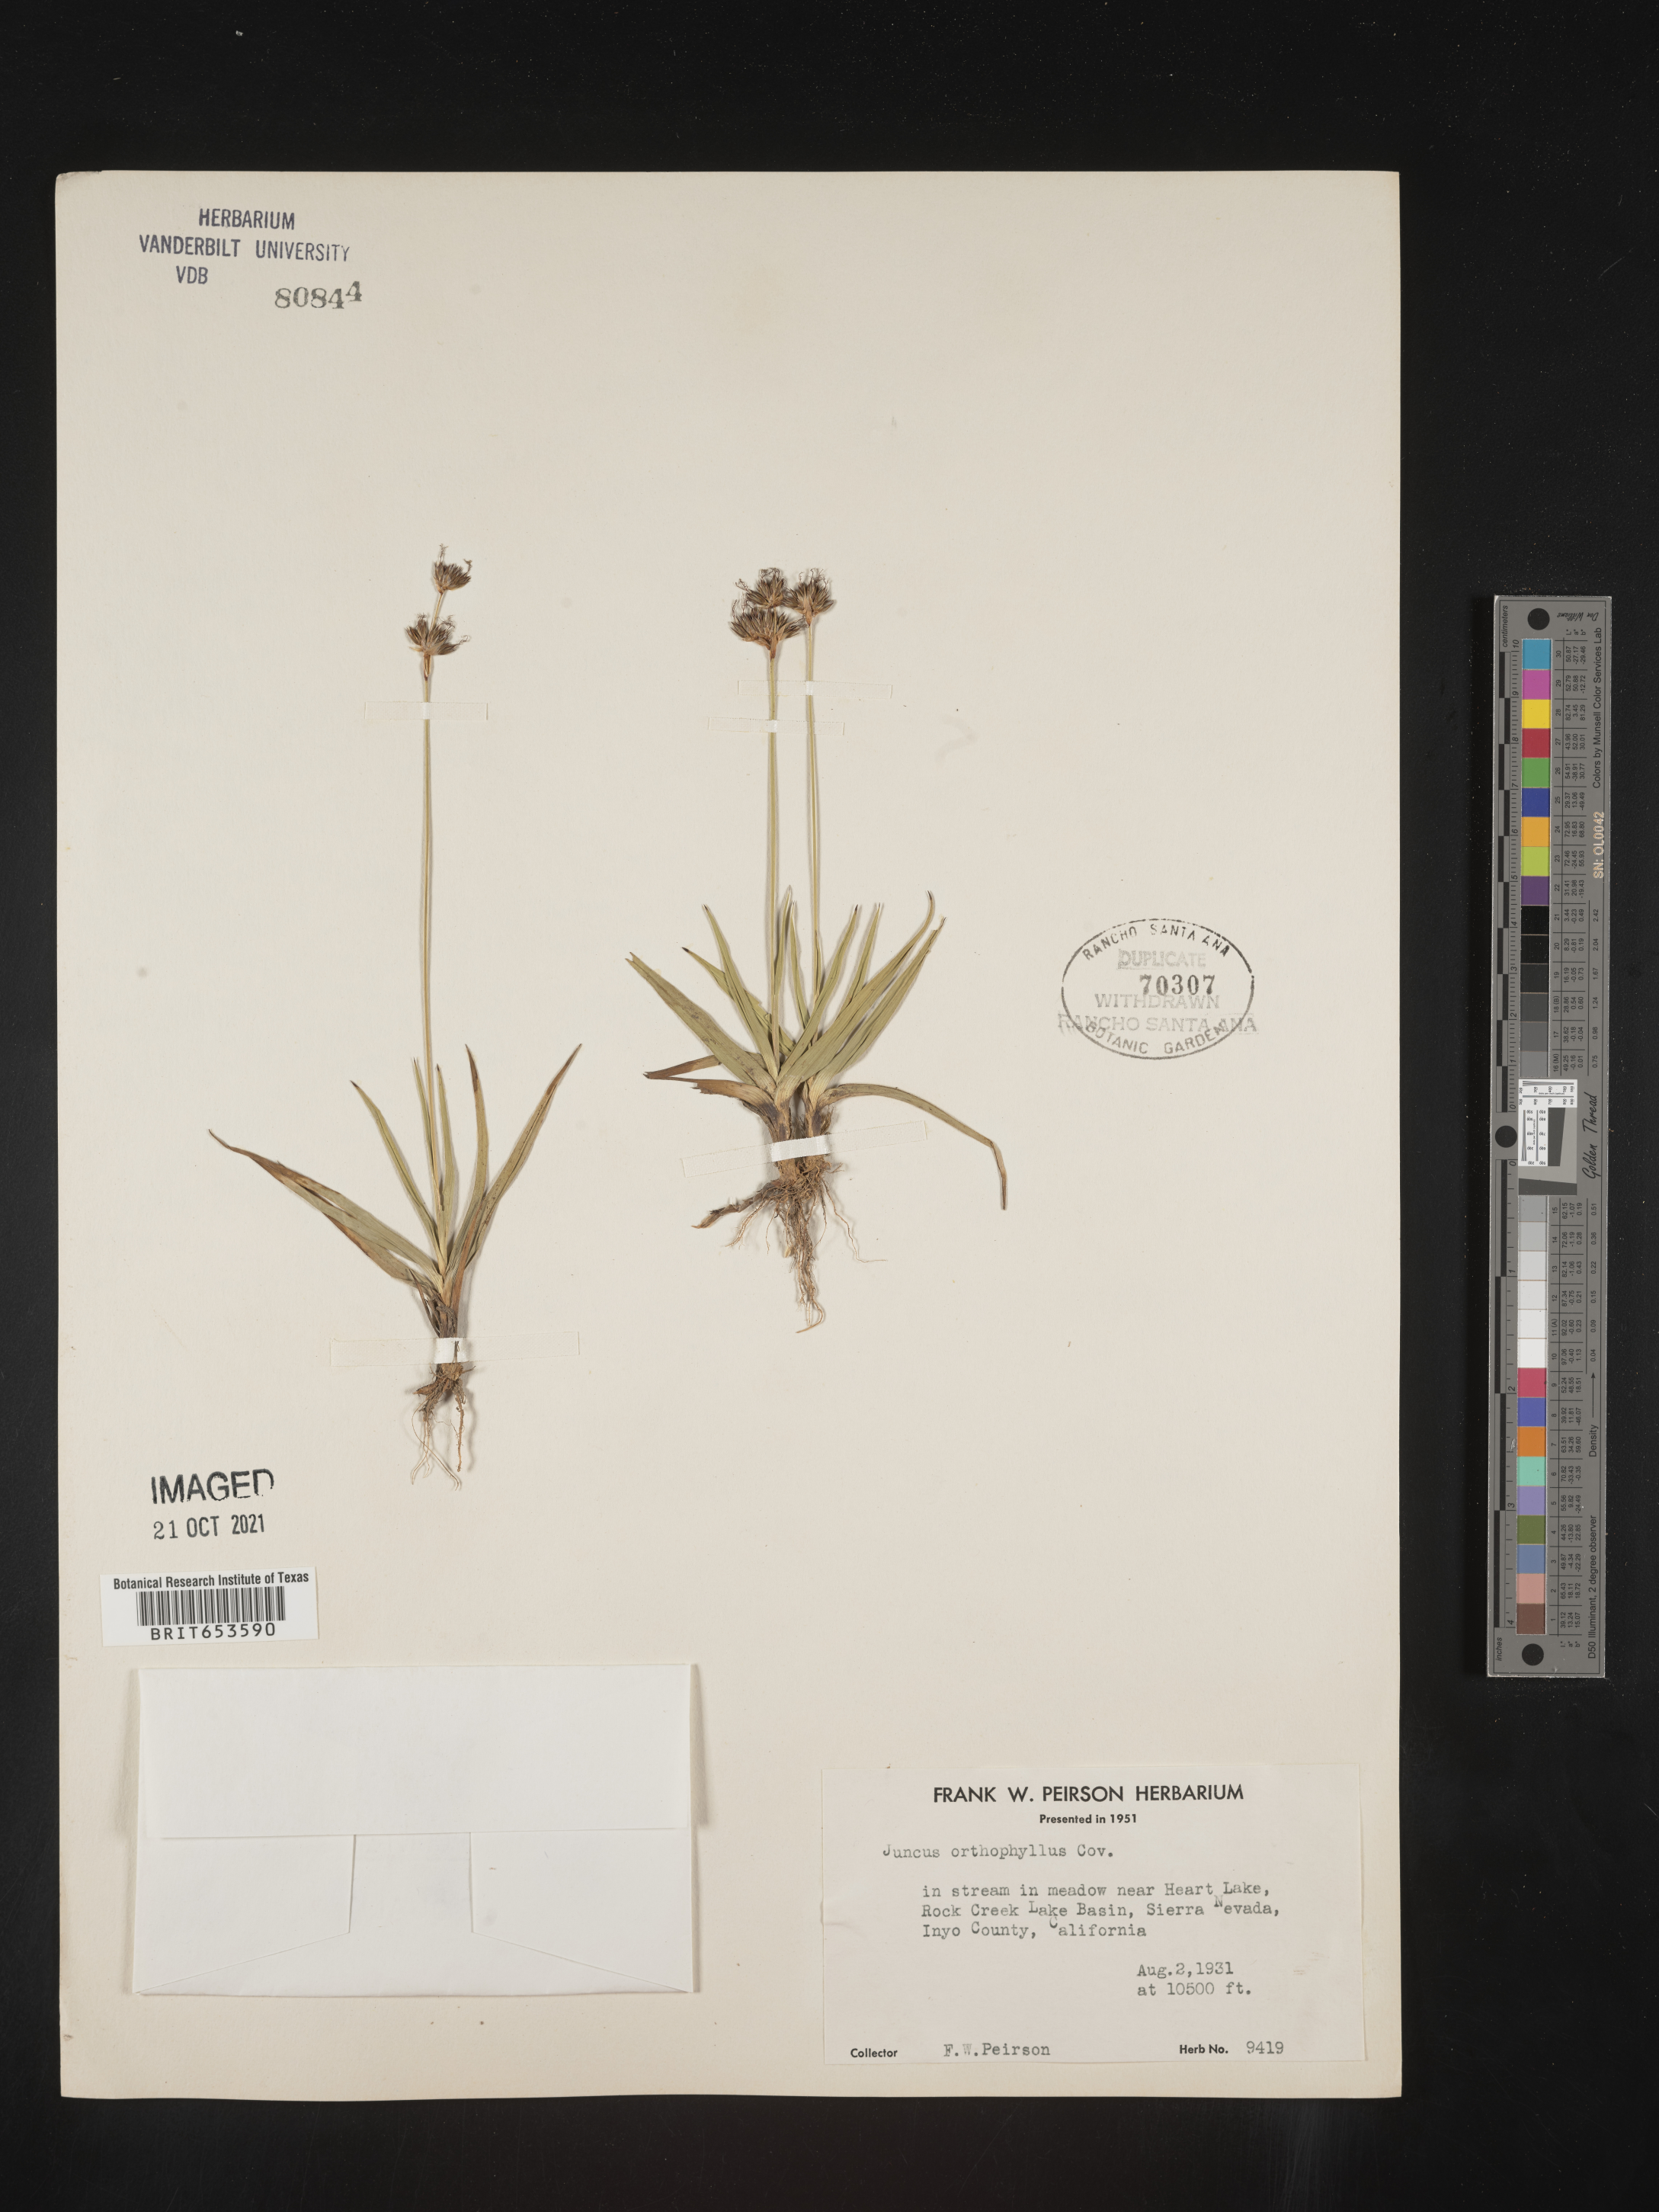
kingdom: Plantae
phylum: Tracheophyta
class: Liliopsida
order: Poales
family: Juncaceae
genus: Juncus
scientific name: Juncus orthophyllus
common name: Straight-leaf rush
